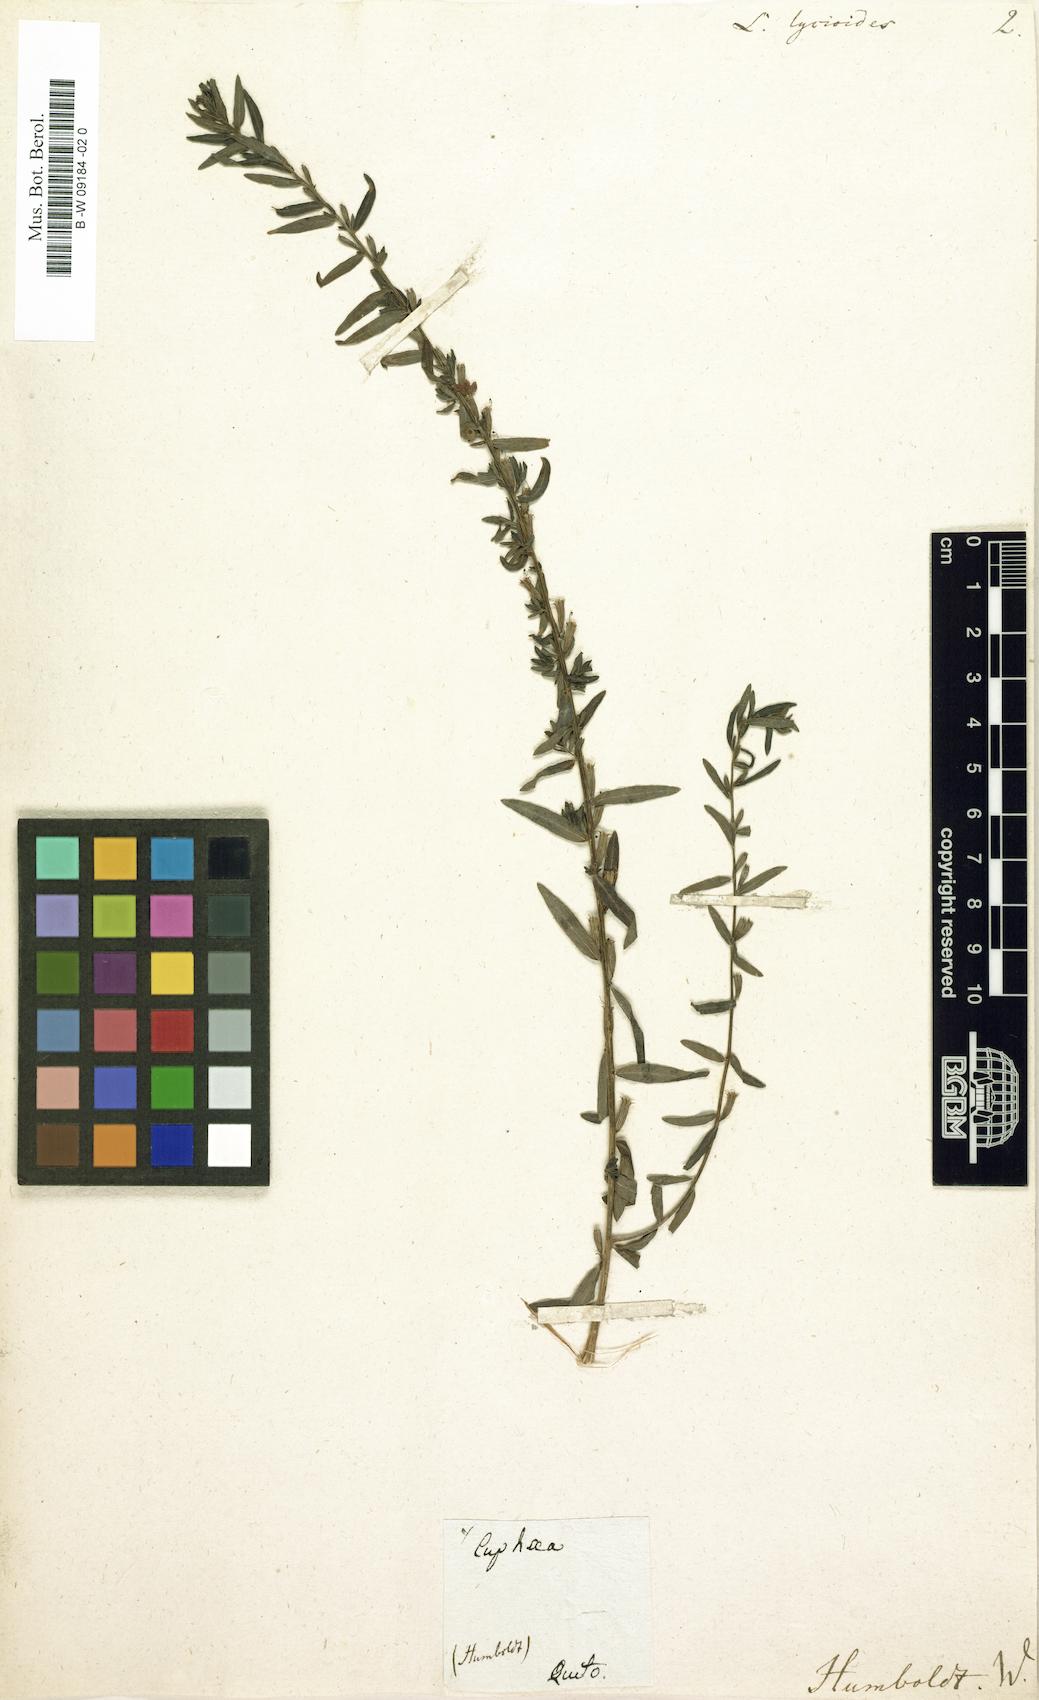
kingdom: Plantae
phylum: Tracheophyta
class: Magnoliopsida
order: Myrtales
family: Lythraceae
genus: Lythrum
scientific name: Lythrum maritimum
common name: Pukamole
